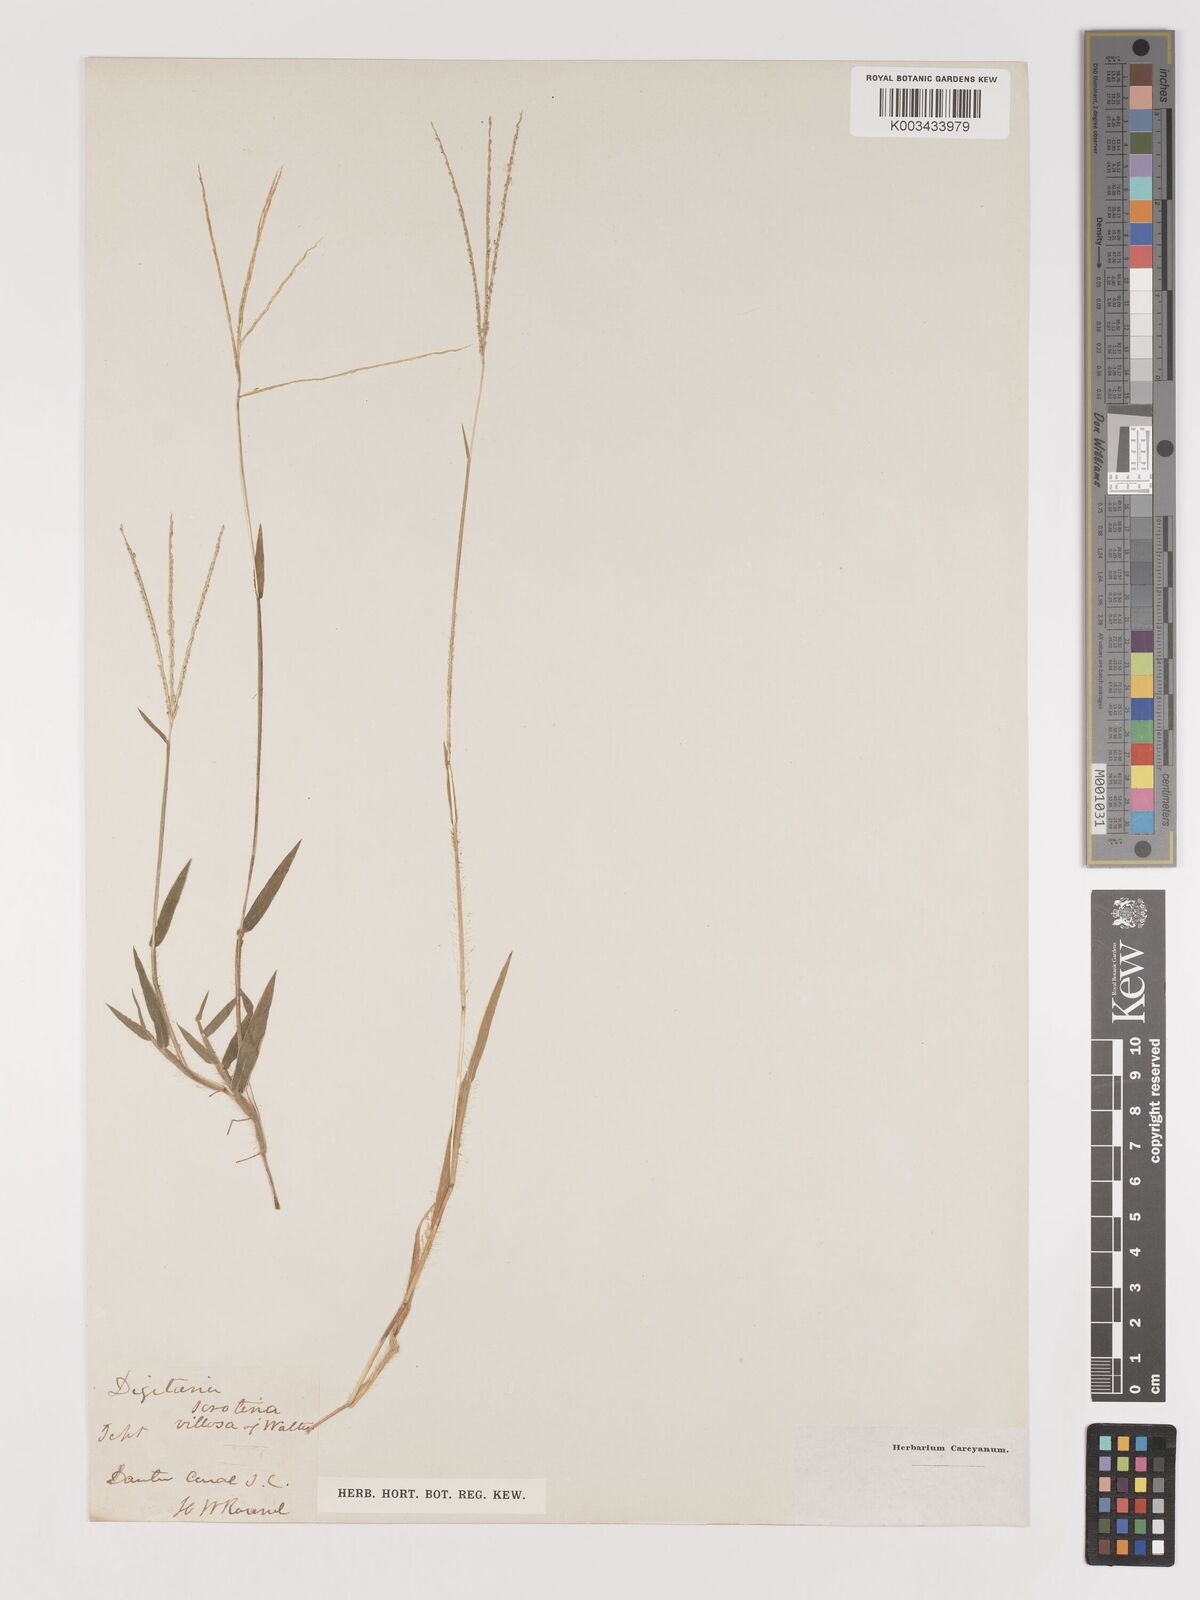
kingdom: Plantae
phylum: Tracheophyta
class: Liliopsida
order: Poales
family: Poaceae
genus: Digitaria
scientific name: Digitaria serotina
